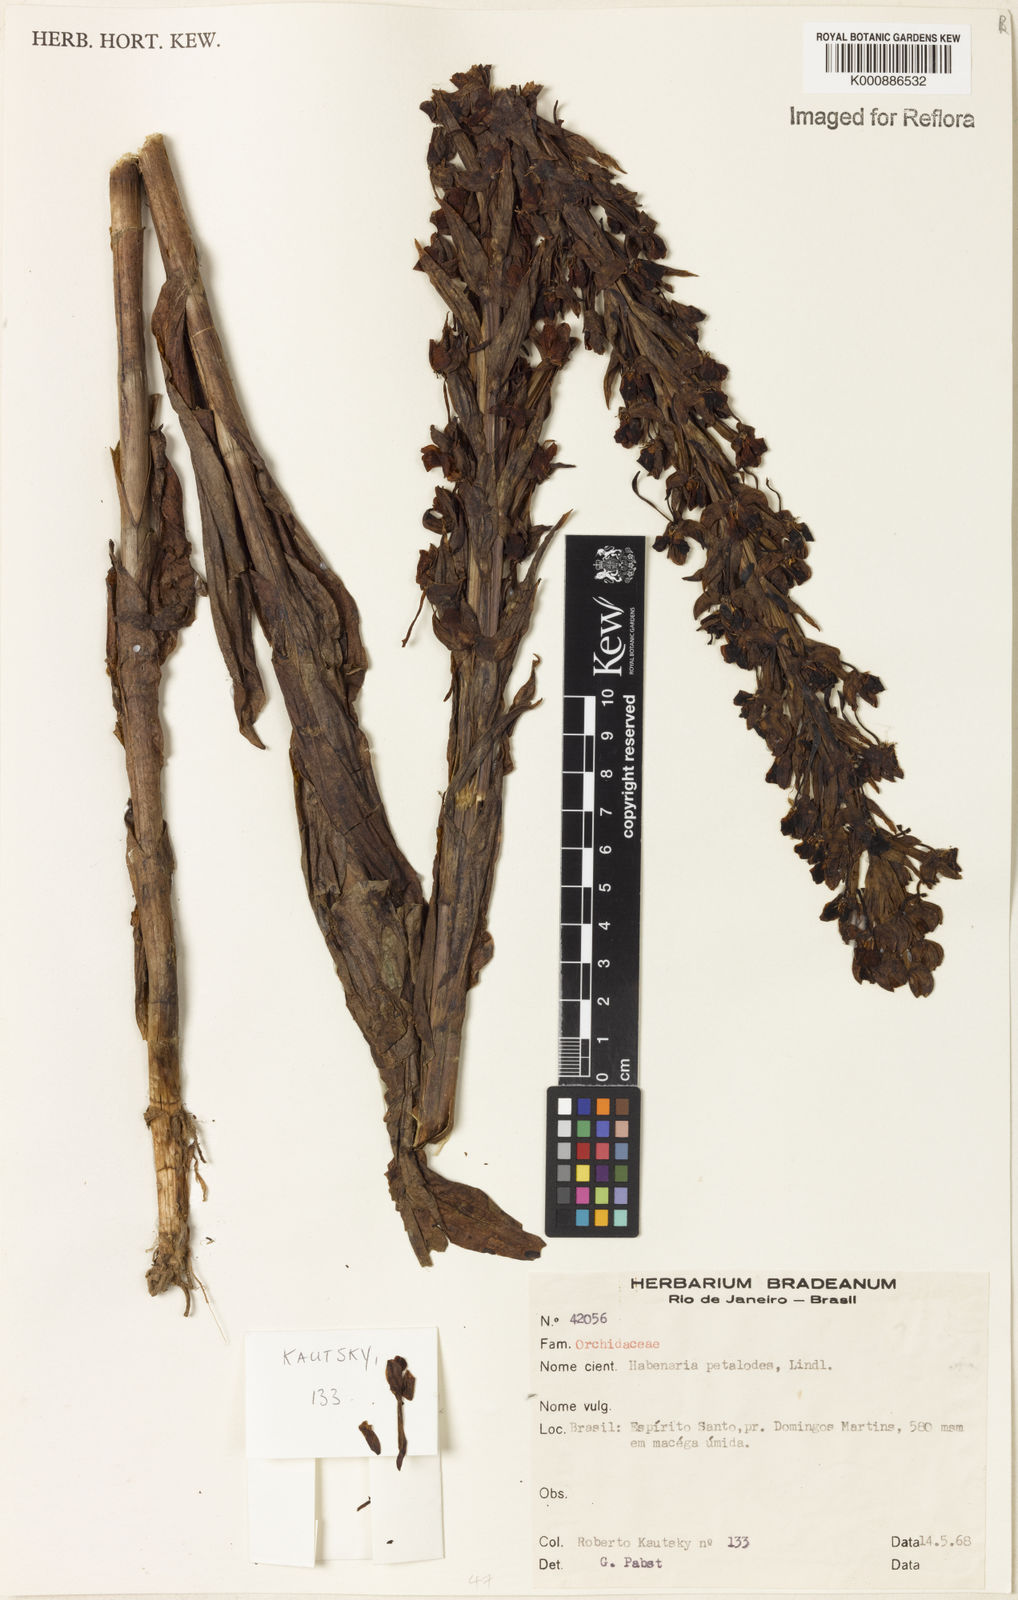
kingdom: Plantae
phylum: Tracheophyta
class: Liliopsida
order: Asparagales
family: Orchidaceae
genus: Habenaria
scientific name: Habenaria petalodes
